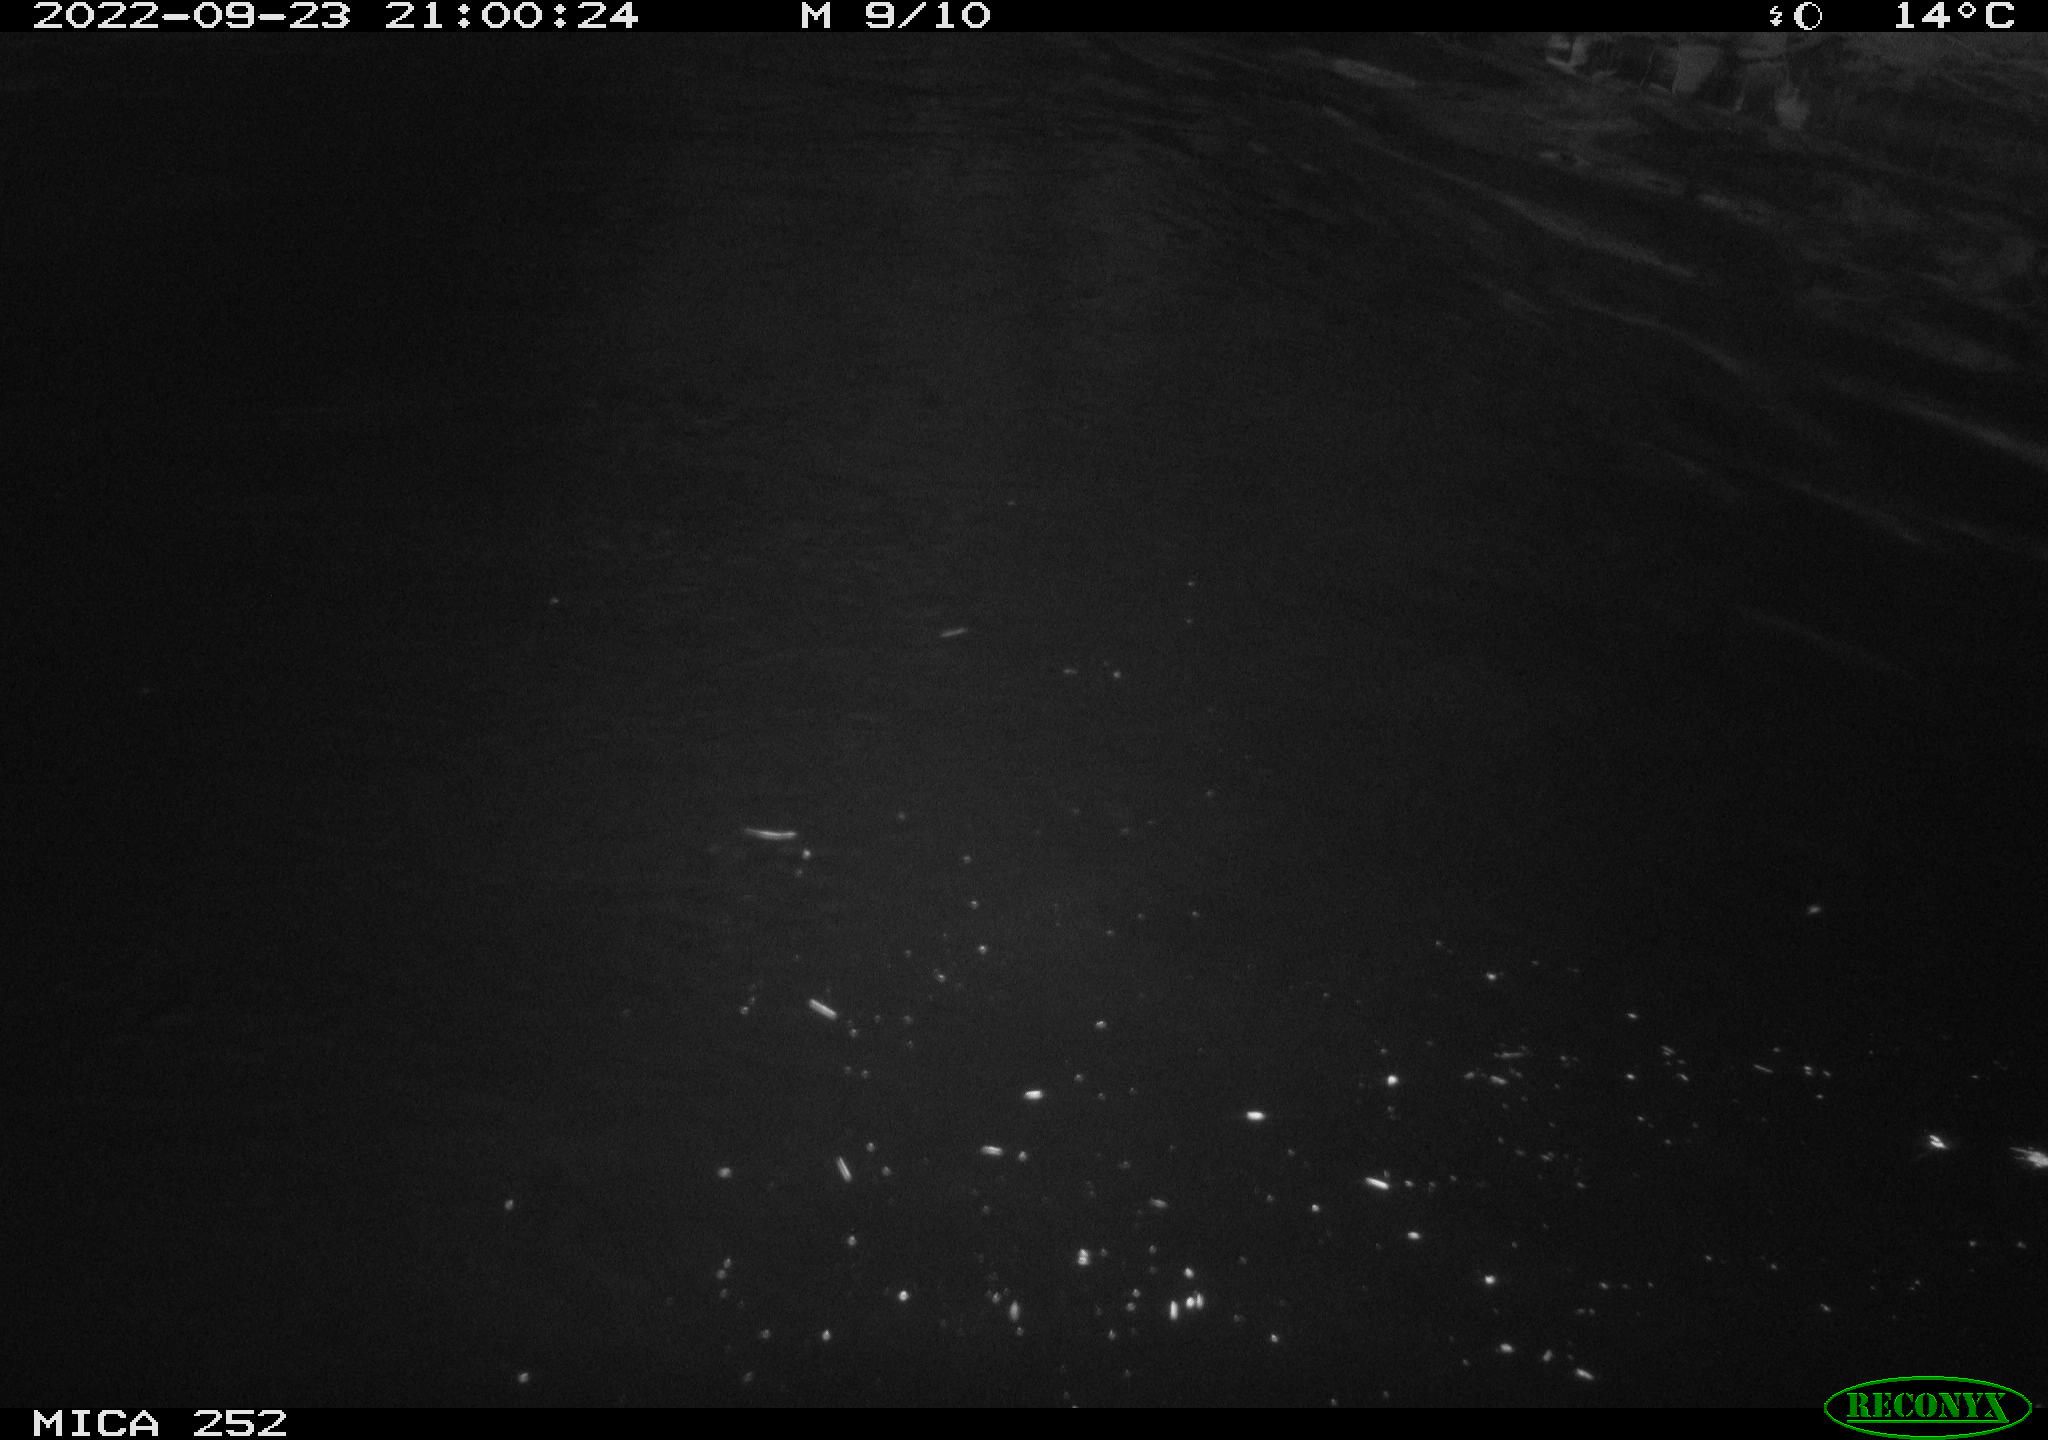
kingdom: Animalia
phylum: Chordata
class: Mammalia
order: Rodentia
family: Castoridae
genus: Castor
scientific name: Castor fiber
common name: Eurasian beaver
